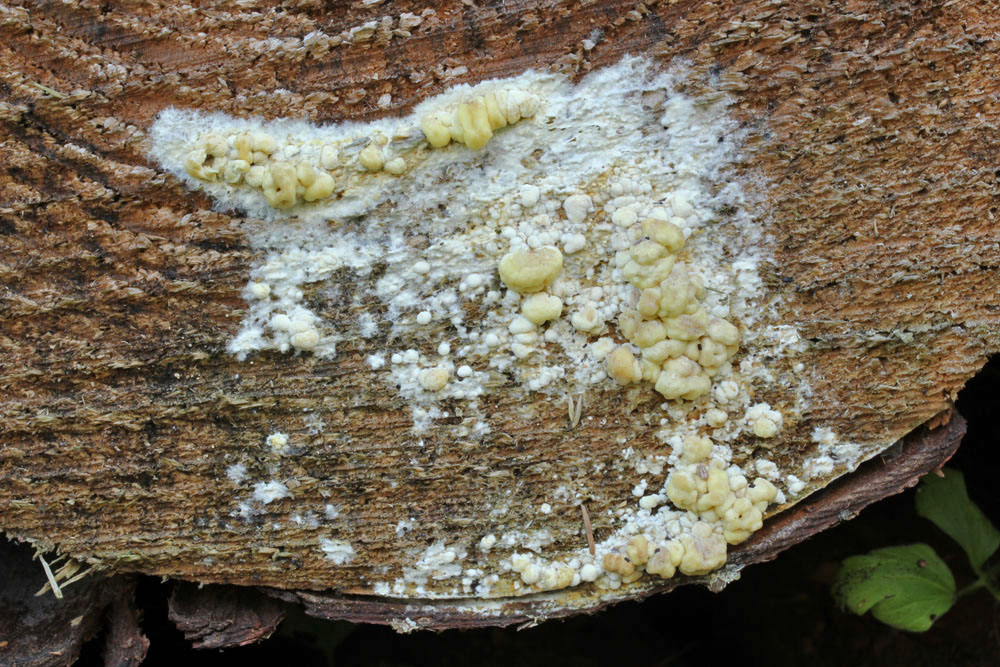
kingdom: Fungi
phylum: Basidiomycota
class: Agaricomycetes
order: Boletales
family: Coniophoraceae
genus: Coniophora
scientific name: Coniophora puteana
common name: gul tømmersvamp
